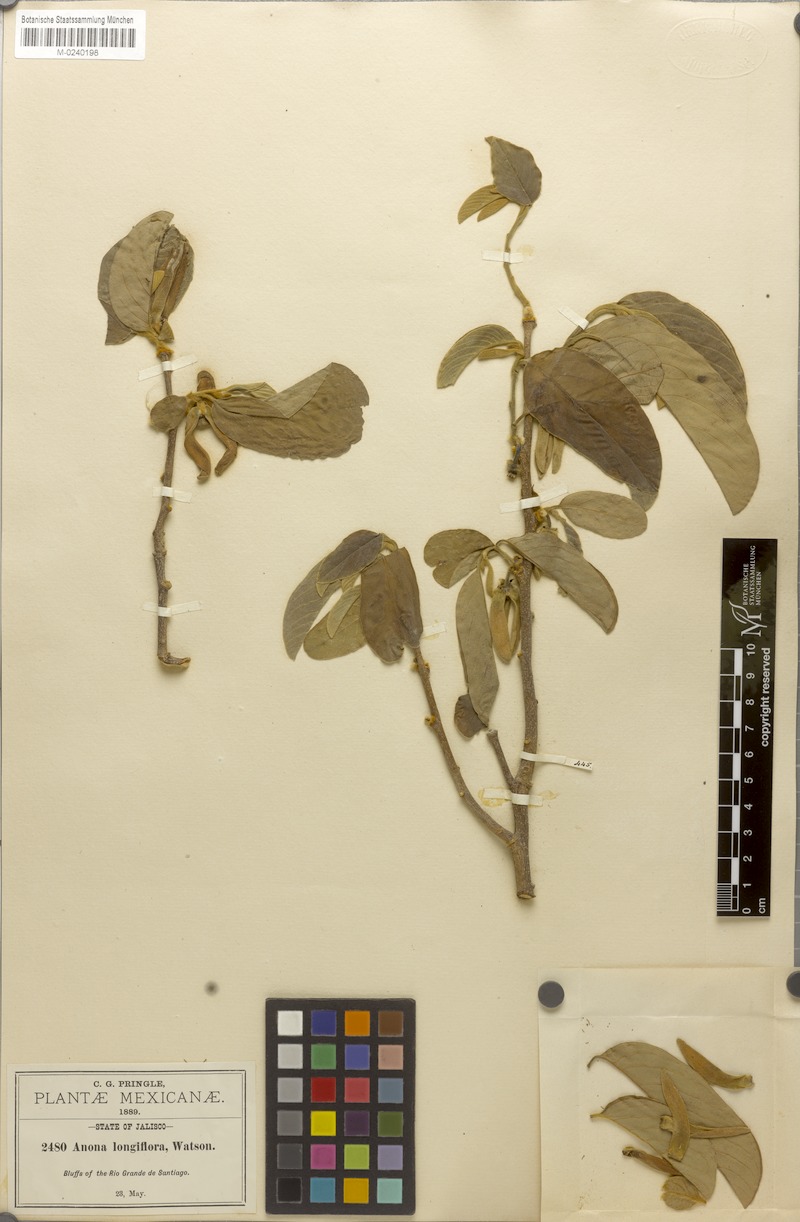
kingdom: Plantae
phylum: Tracheophyta
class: Magnoliopsida
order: Magnoliales
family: Annonaceae
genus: Annona
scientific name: Annona longiflora
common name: Wild cherimoya of jalisco
